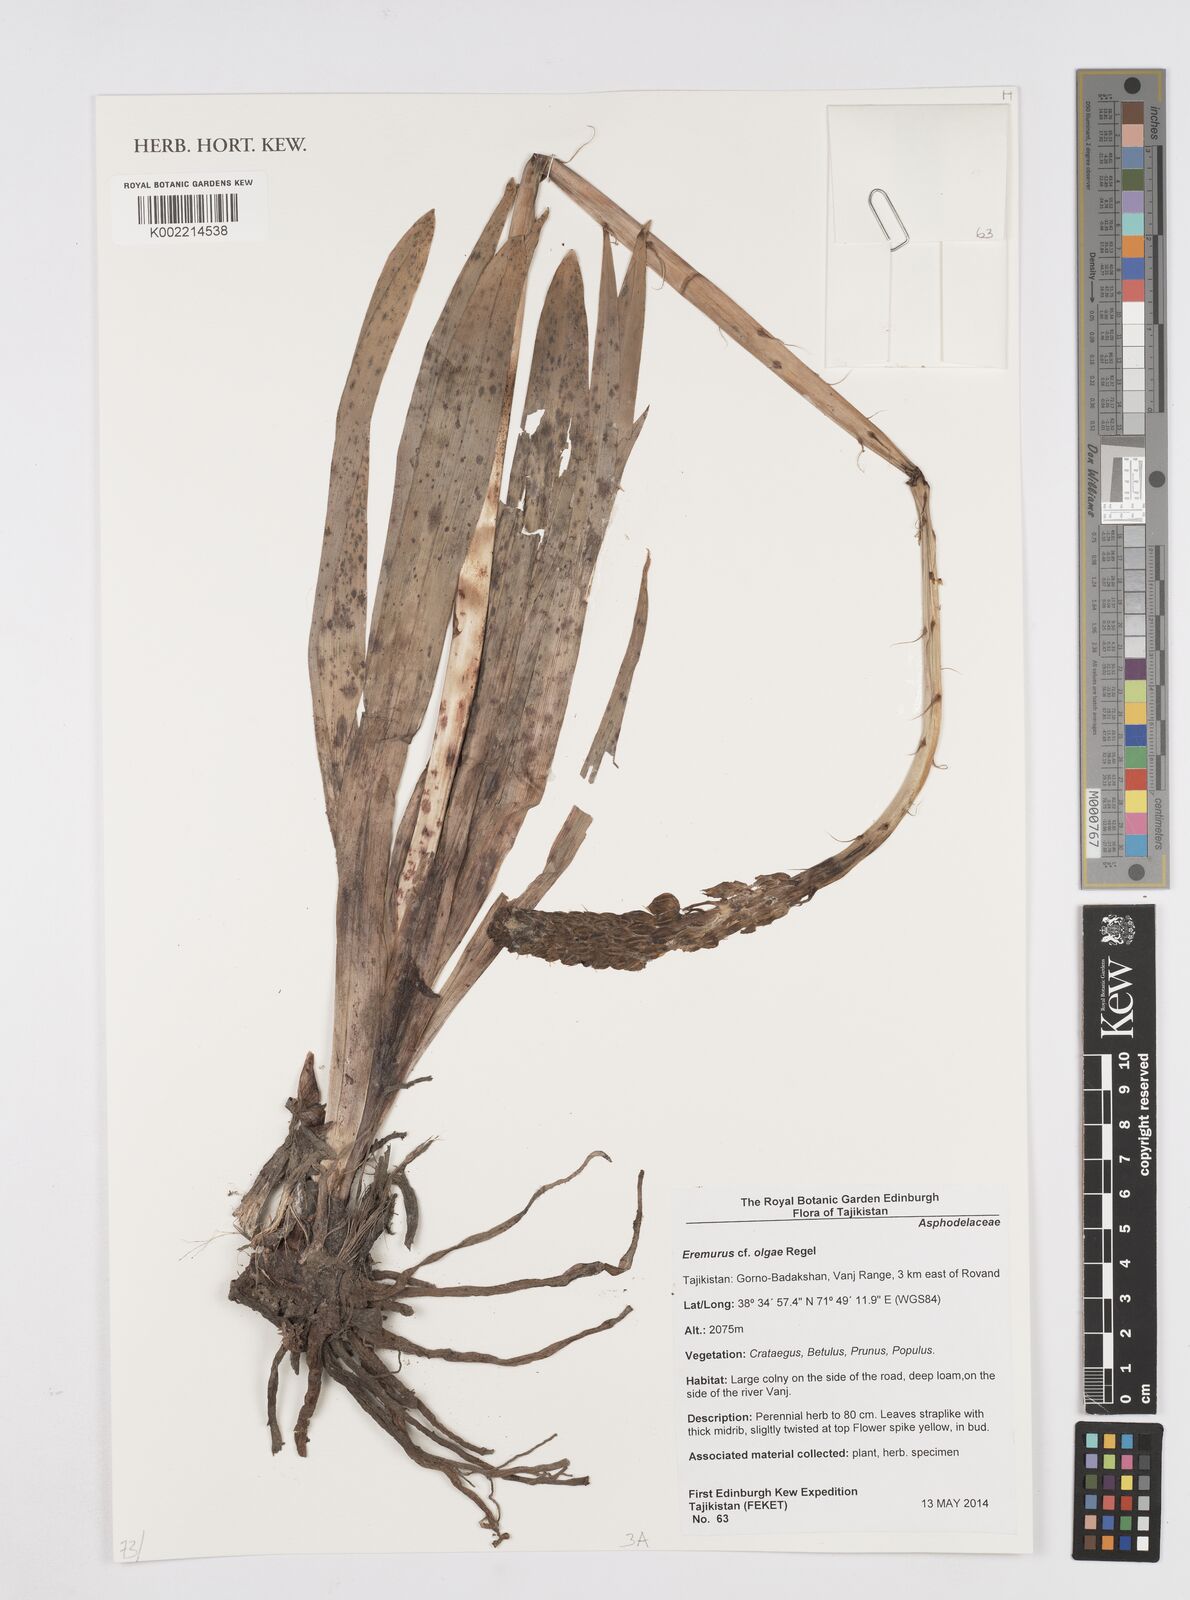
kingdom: Plantae
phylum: Tracheophyta
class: Liliopsida
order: Asparagales
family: Asphodelaceae
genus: Eremurus
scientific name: Eremurus olgae
